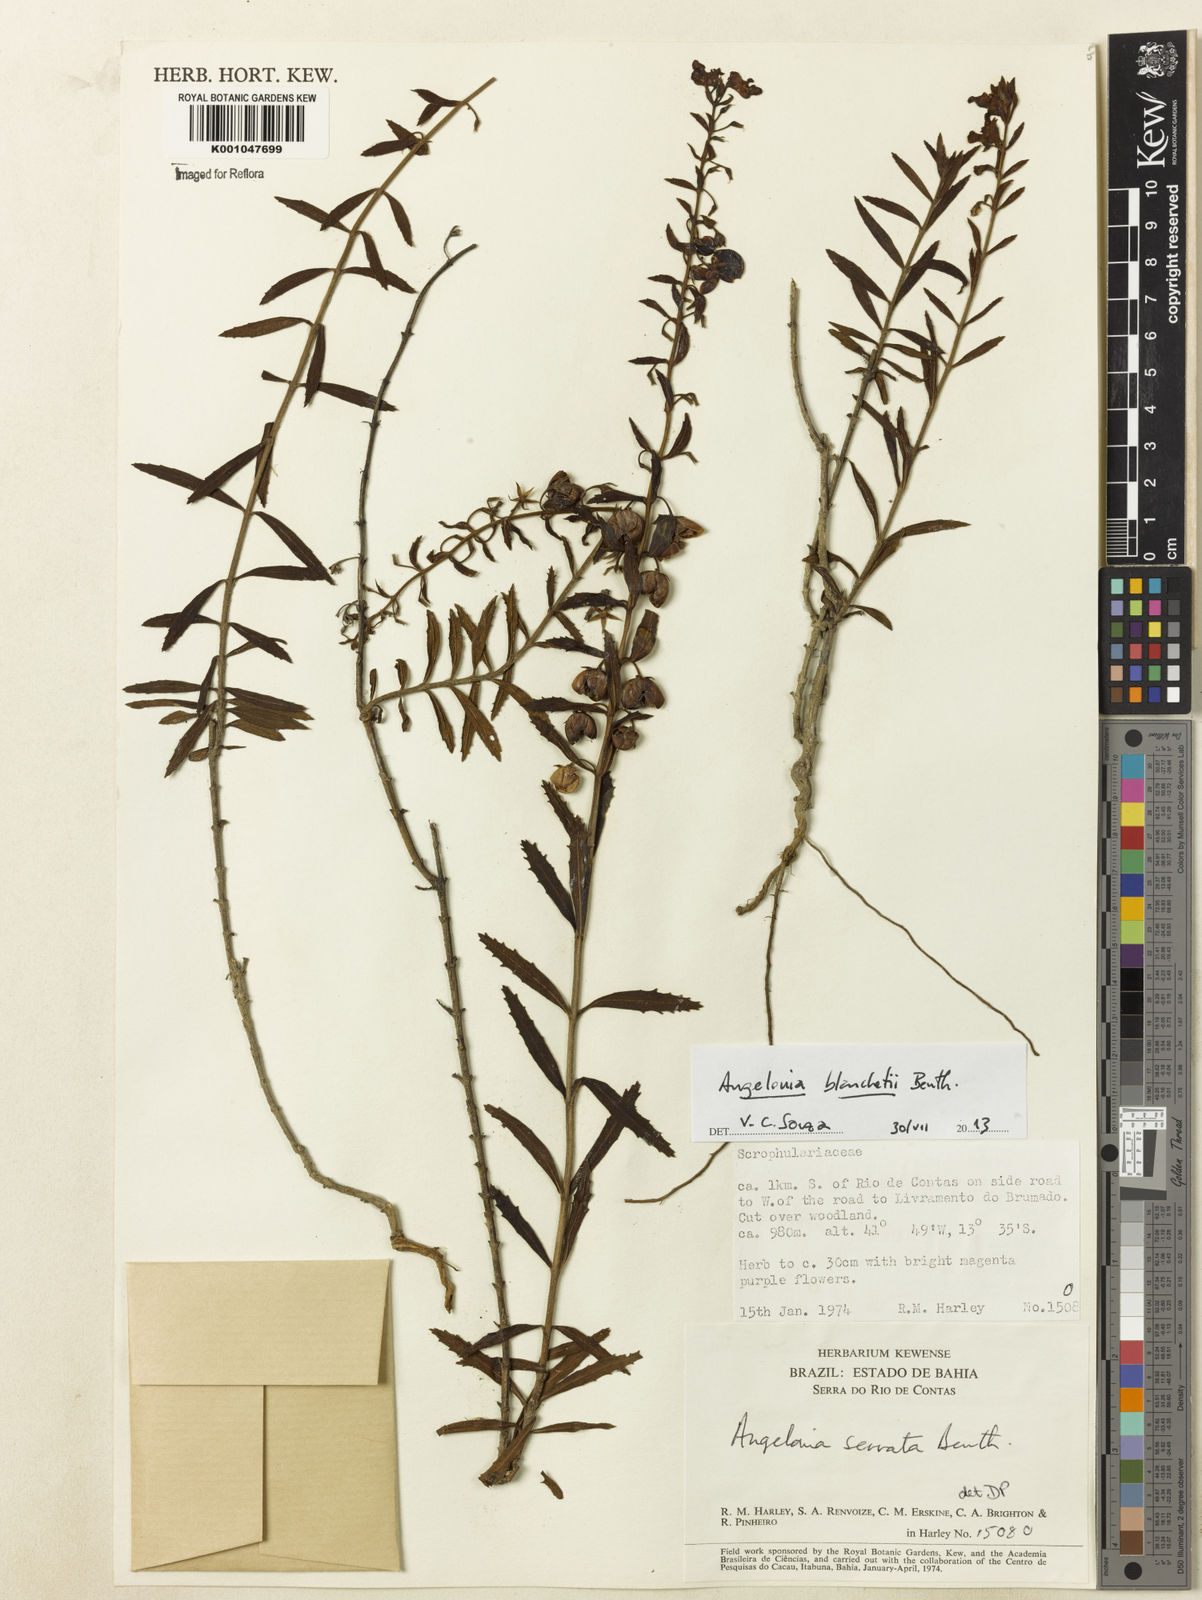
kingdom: Plantae
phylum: Tracheophyta
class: Magnoliopsida
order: Lamiales
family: Plantaginaceae
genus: Angelonia
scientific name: Angelonia blanchetii
